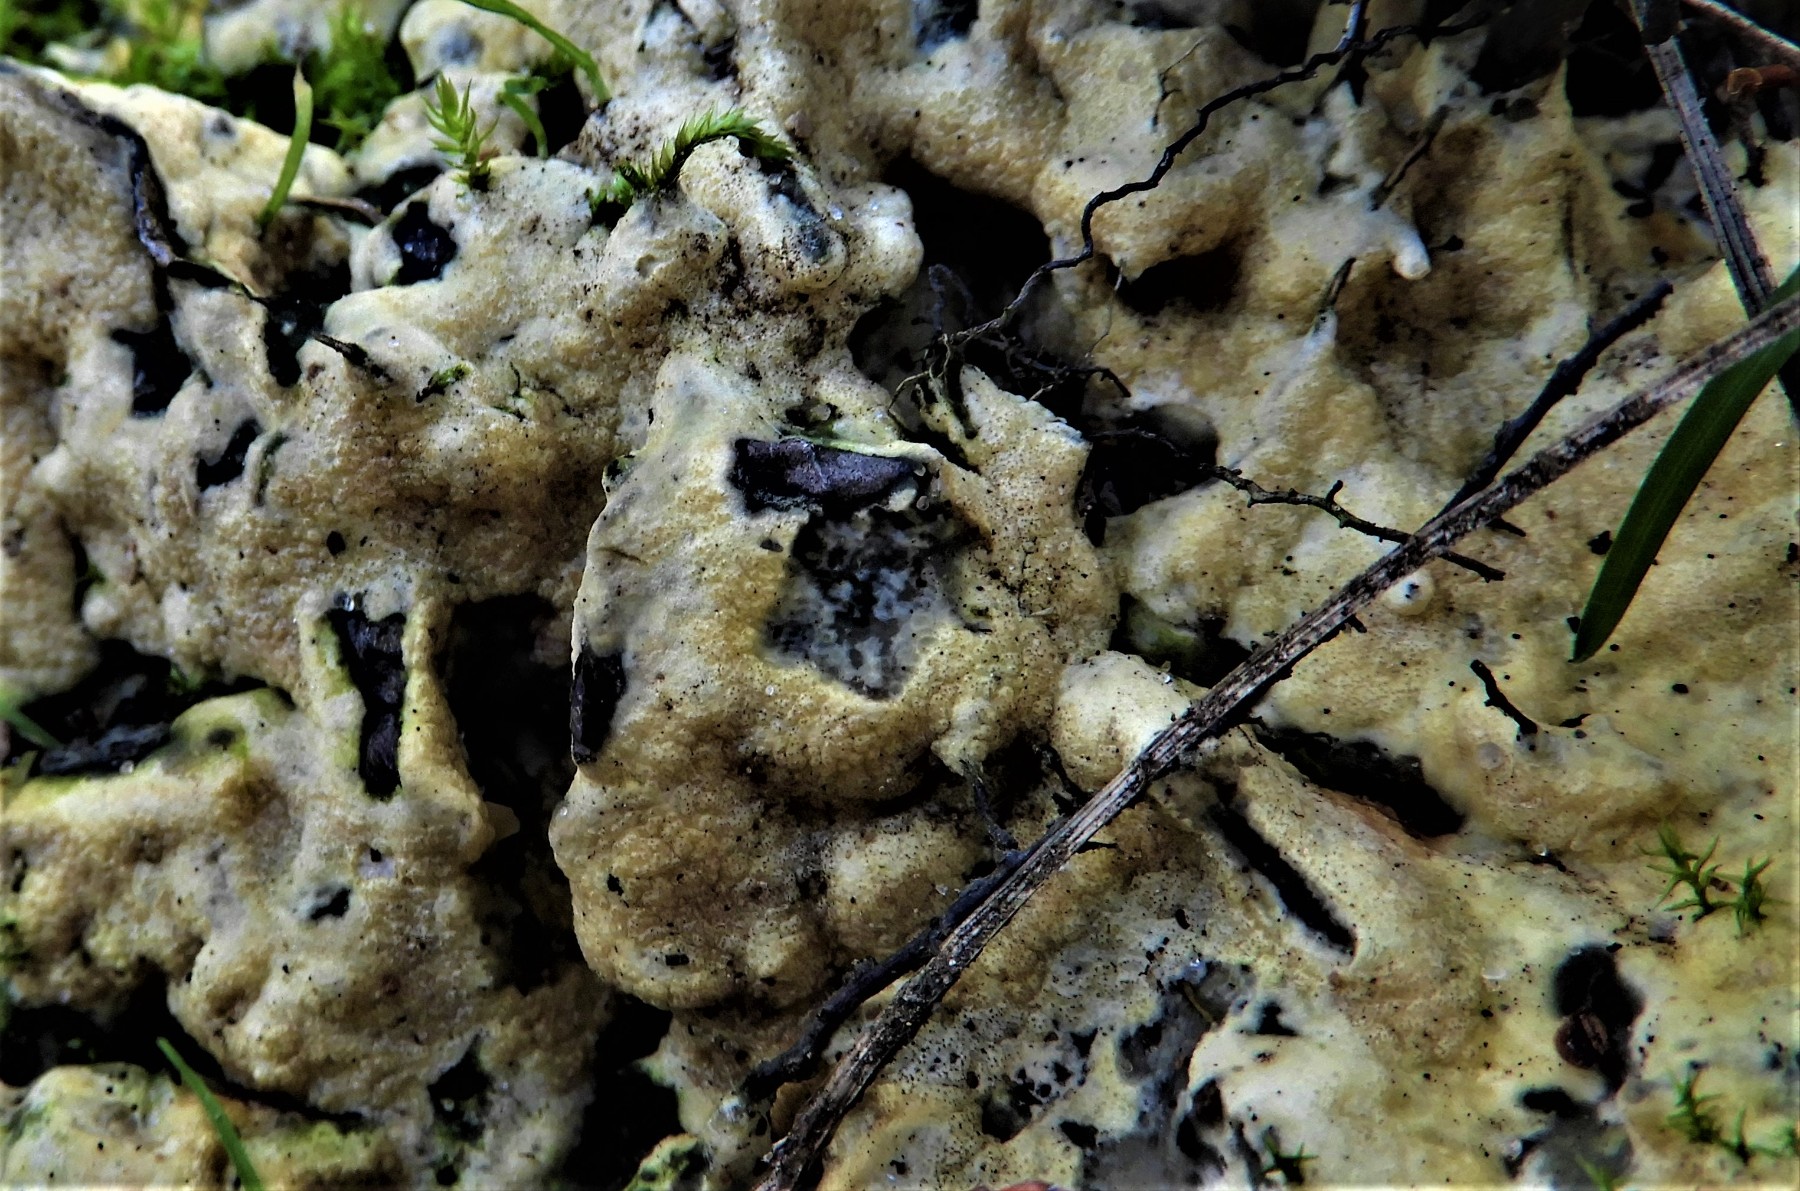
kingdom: Fungi
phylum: Ascomycota
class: Sordariomycetes
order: Hypocreales
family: Hypocreaceae
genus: Trichoderma
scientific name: Trichoderma citrinum
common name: udbredt kødkerne
